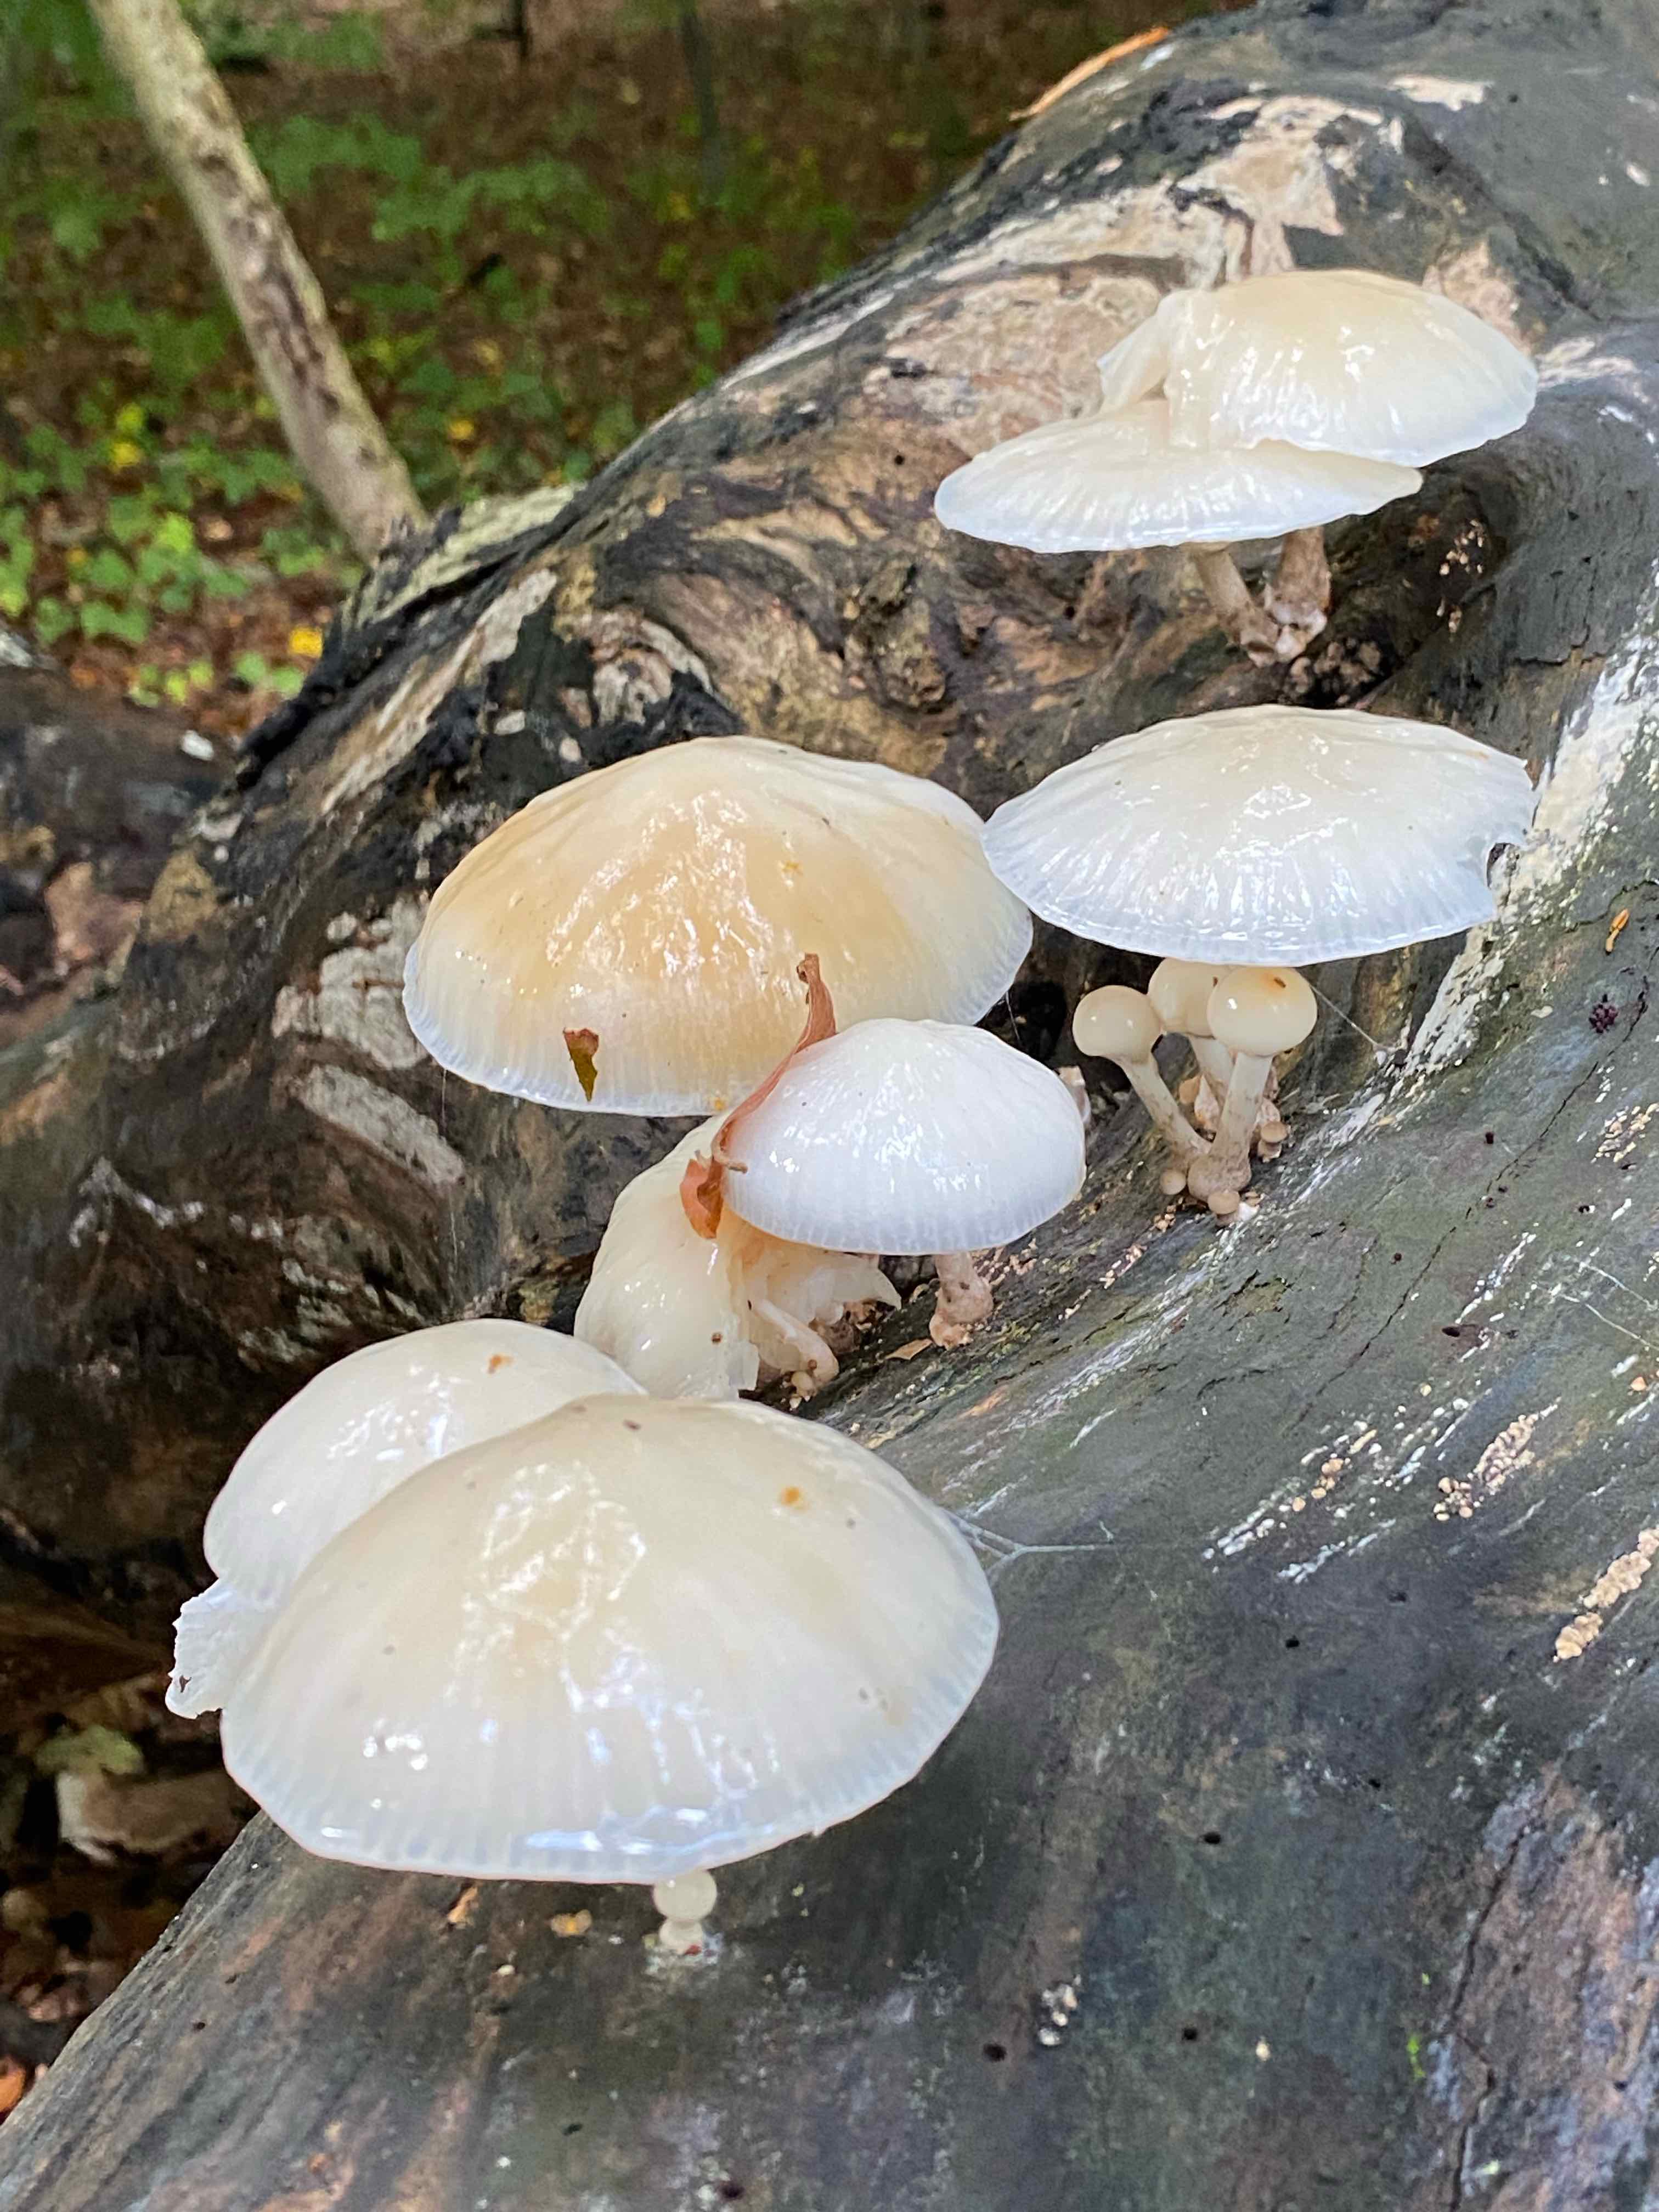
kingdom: Fungi
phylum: Basidiomycota
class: Agaricomycetes
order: Agaricales
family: Physalacriaceae
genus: Mucidula
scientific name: Mucidula mucida
